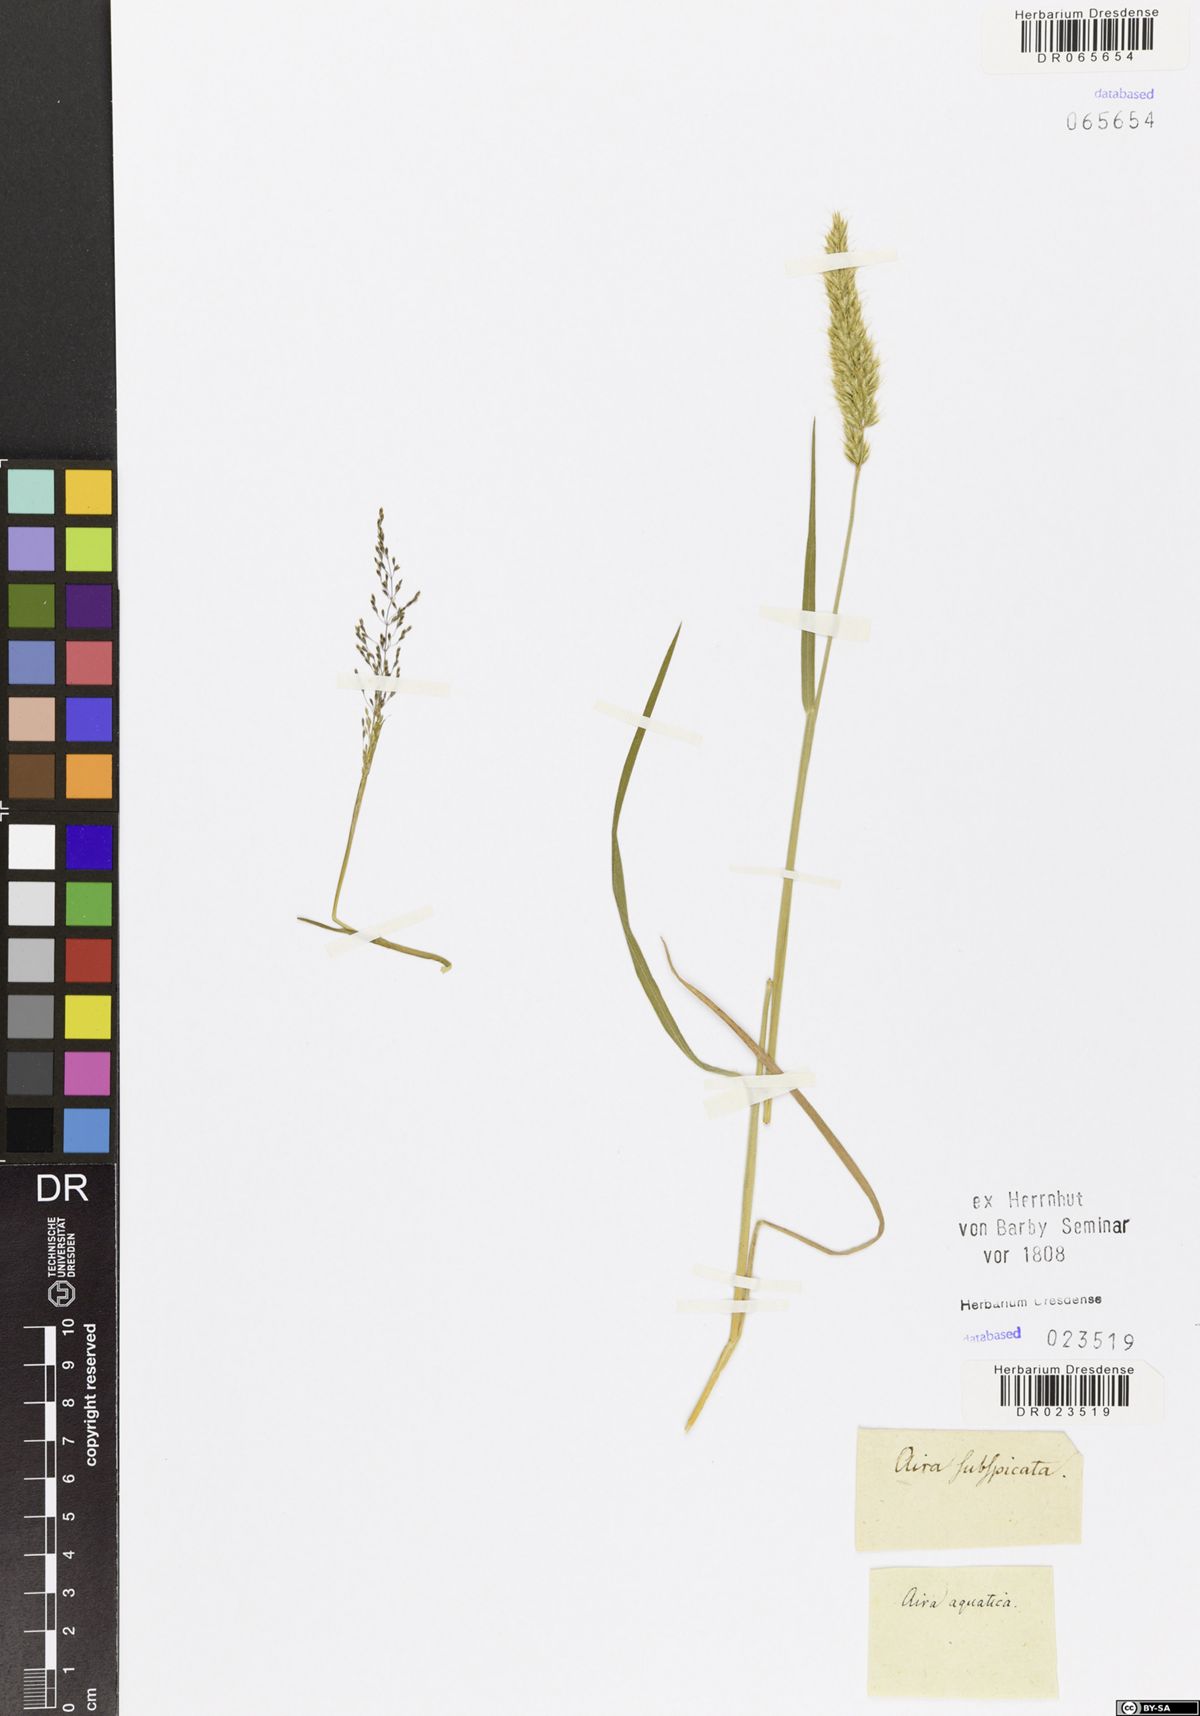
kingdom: Plantae
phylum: Tracheophyta
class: Liliopsida
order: Poales
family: Poaceae
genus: Catabrosa
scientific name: Catabrosa aquatica
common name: Whorl-grass
